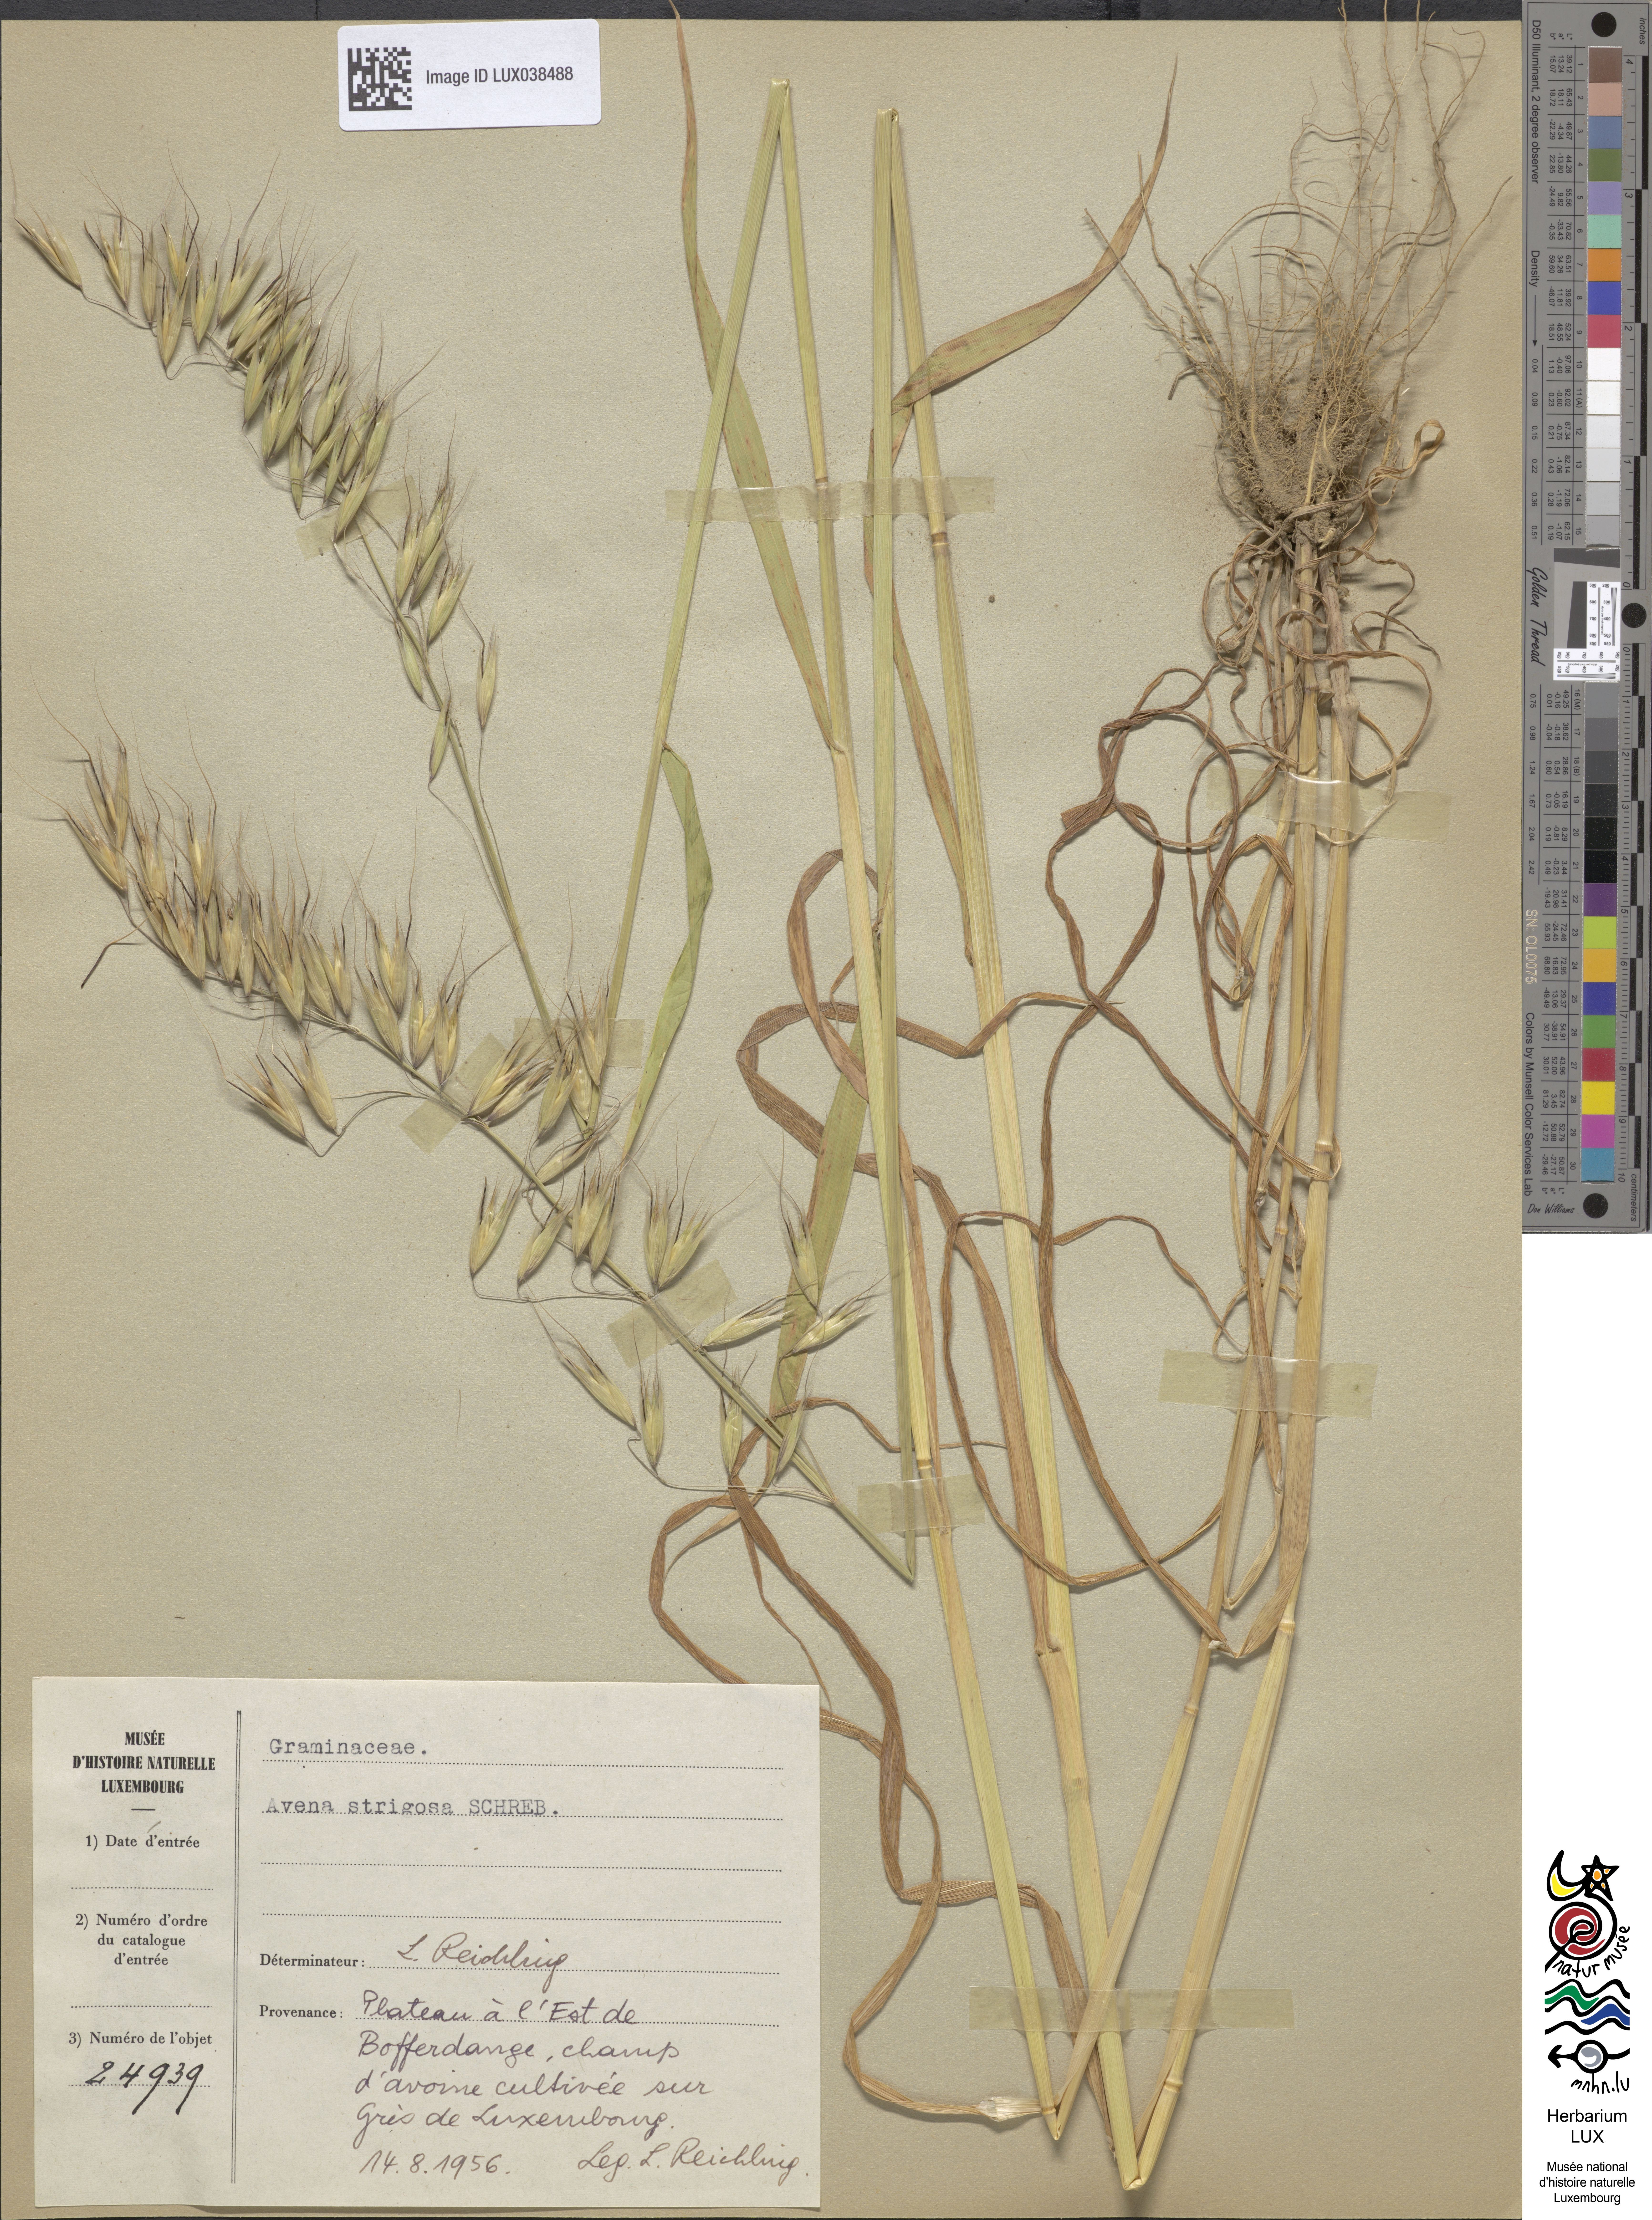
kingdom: Plantae
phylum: Tracheophyta
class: Liliopsida
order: Poales
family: Poaceae
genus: Avena
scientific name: Avena strigosa
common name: Bristle oat
